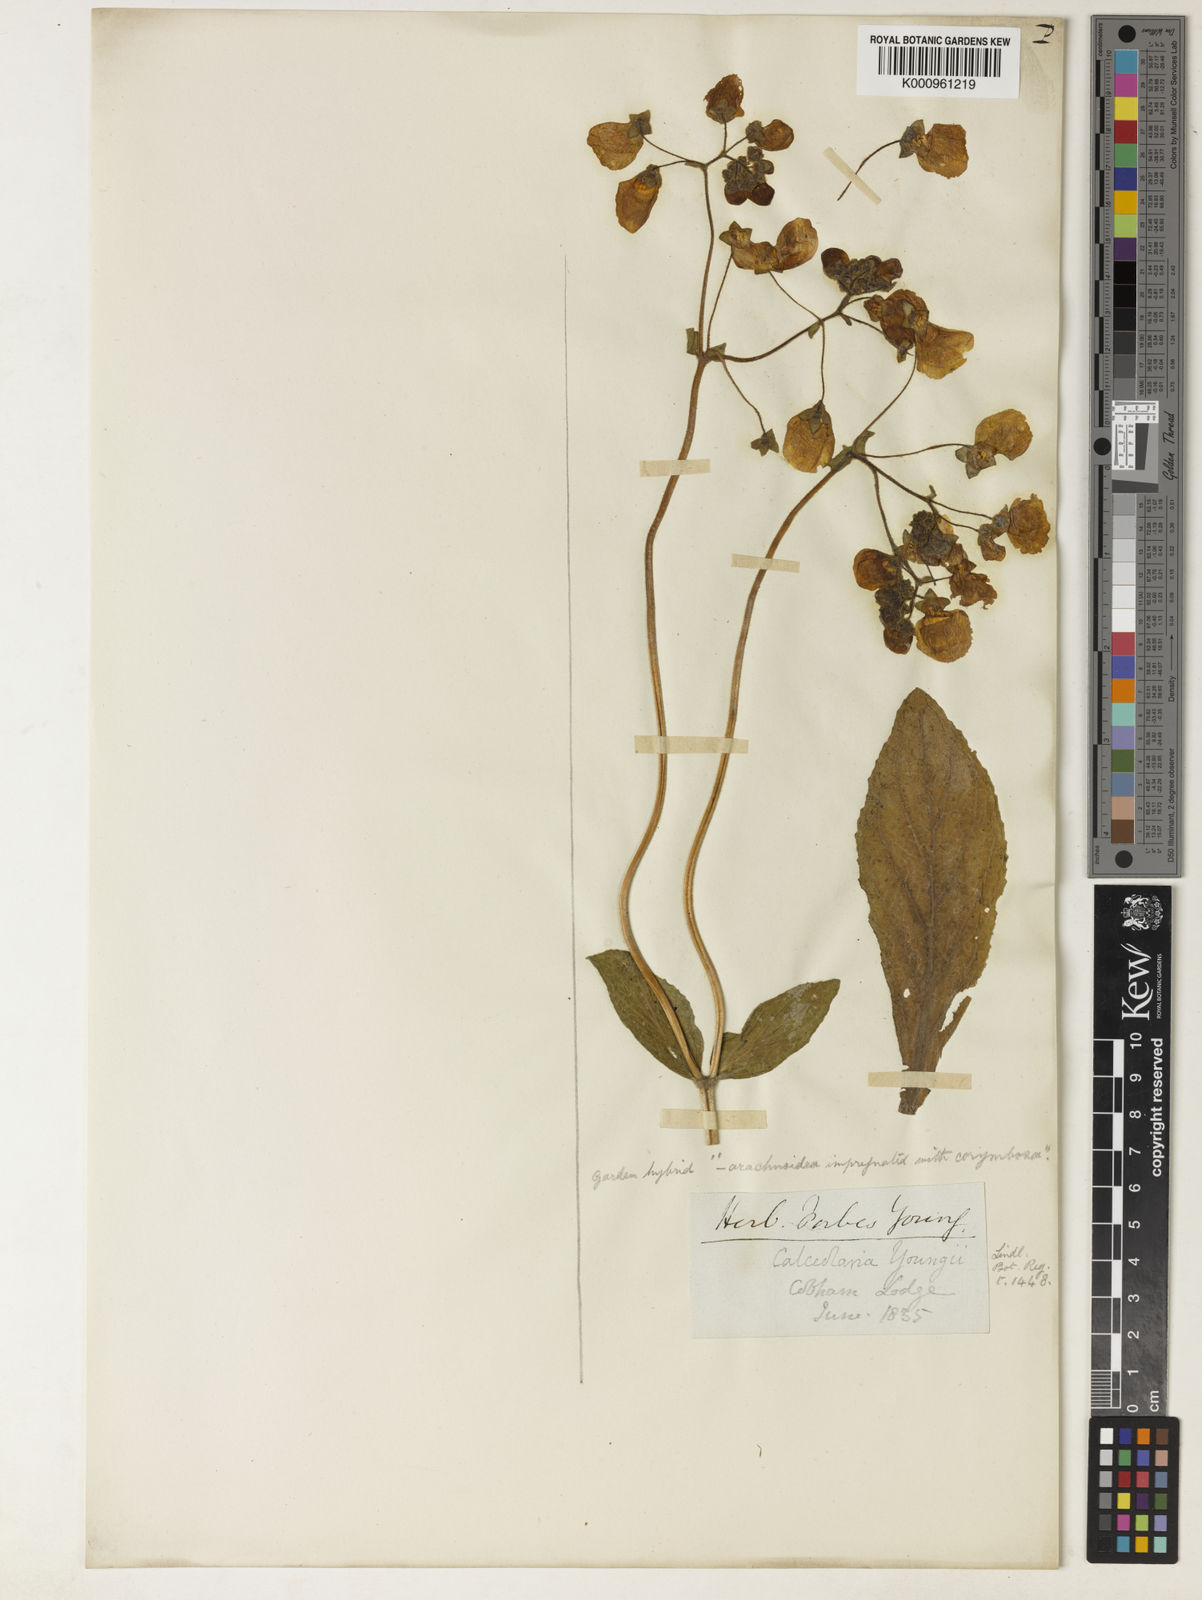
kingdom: Plantae
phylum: Tracheophyta
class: Magnoliopsida
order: Lamiales
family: Calceolariaceae
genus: Calceolaria
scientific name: Calceolaria youngii
